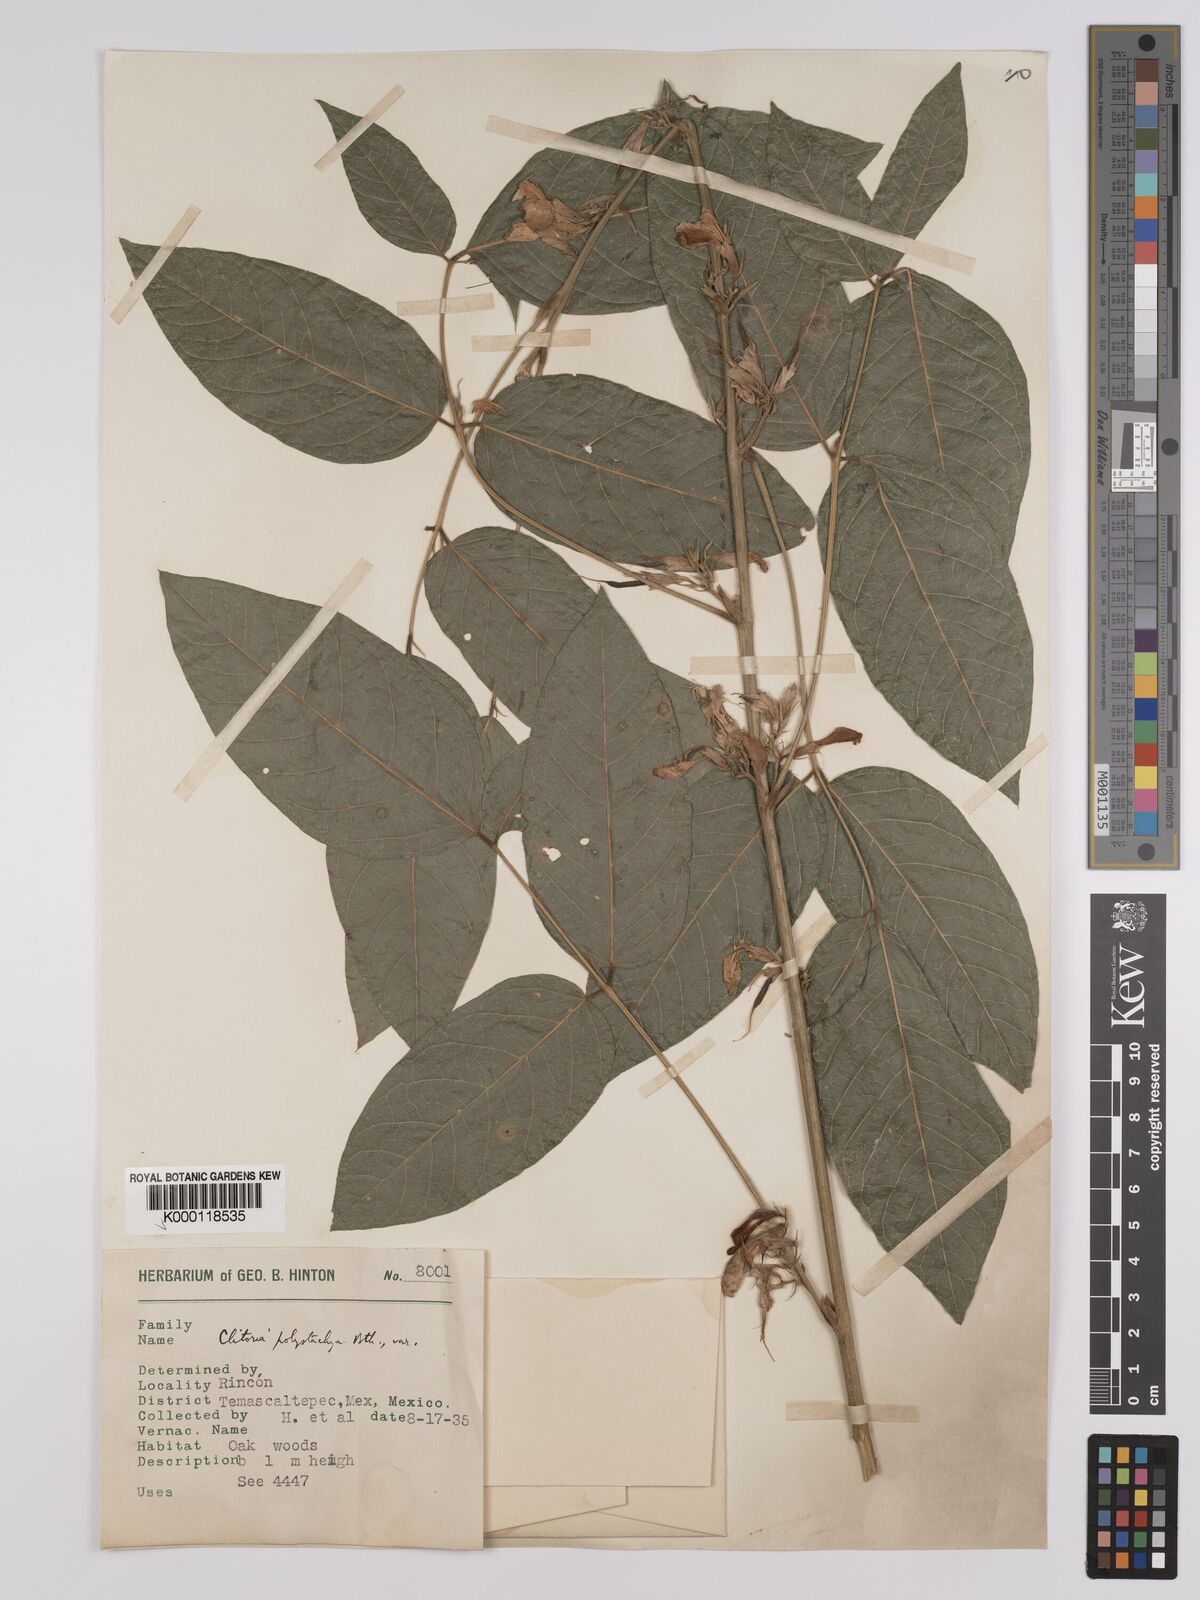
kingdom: Plantae
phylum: Tracheophyta
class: Magnoliopsida
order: Fabales
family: Fabaceae
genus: Clitoria
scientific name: Clitoria polystachya
